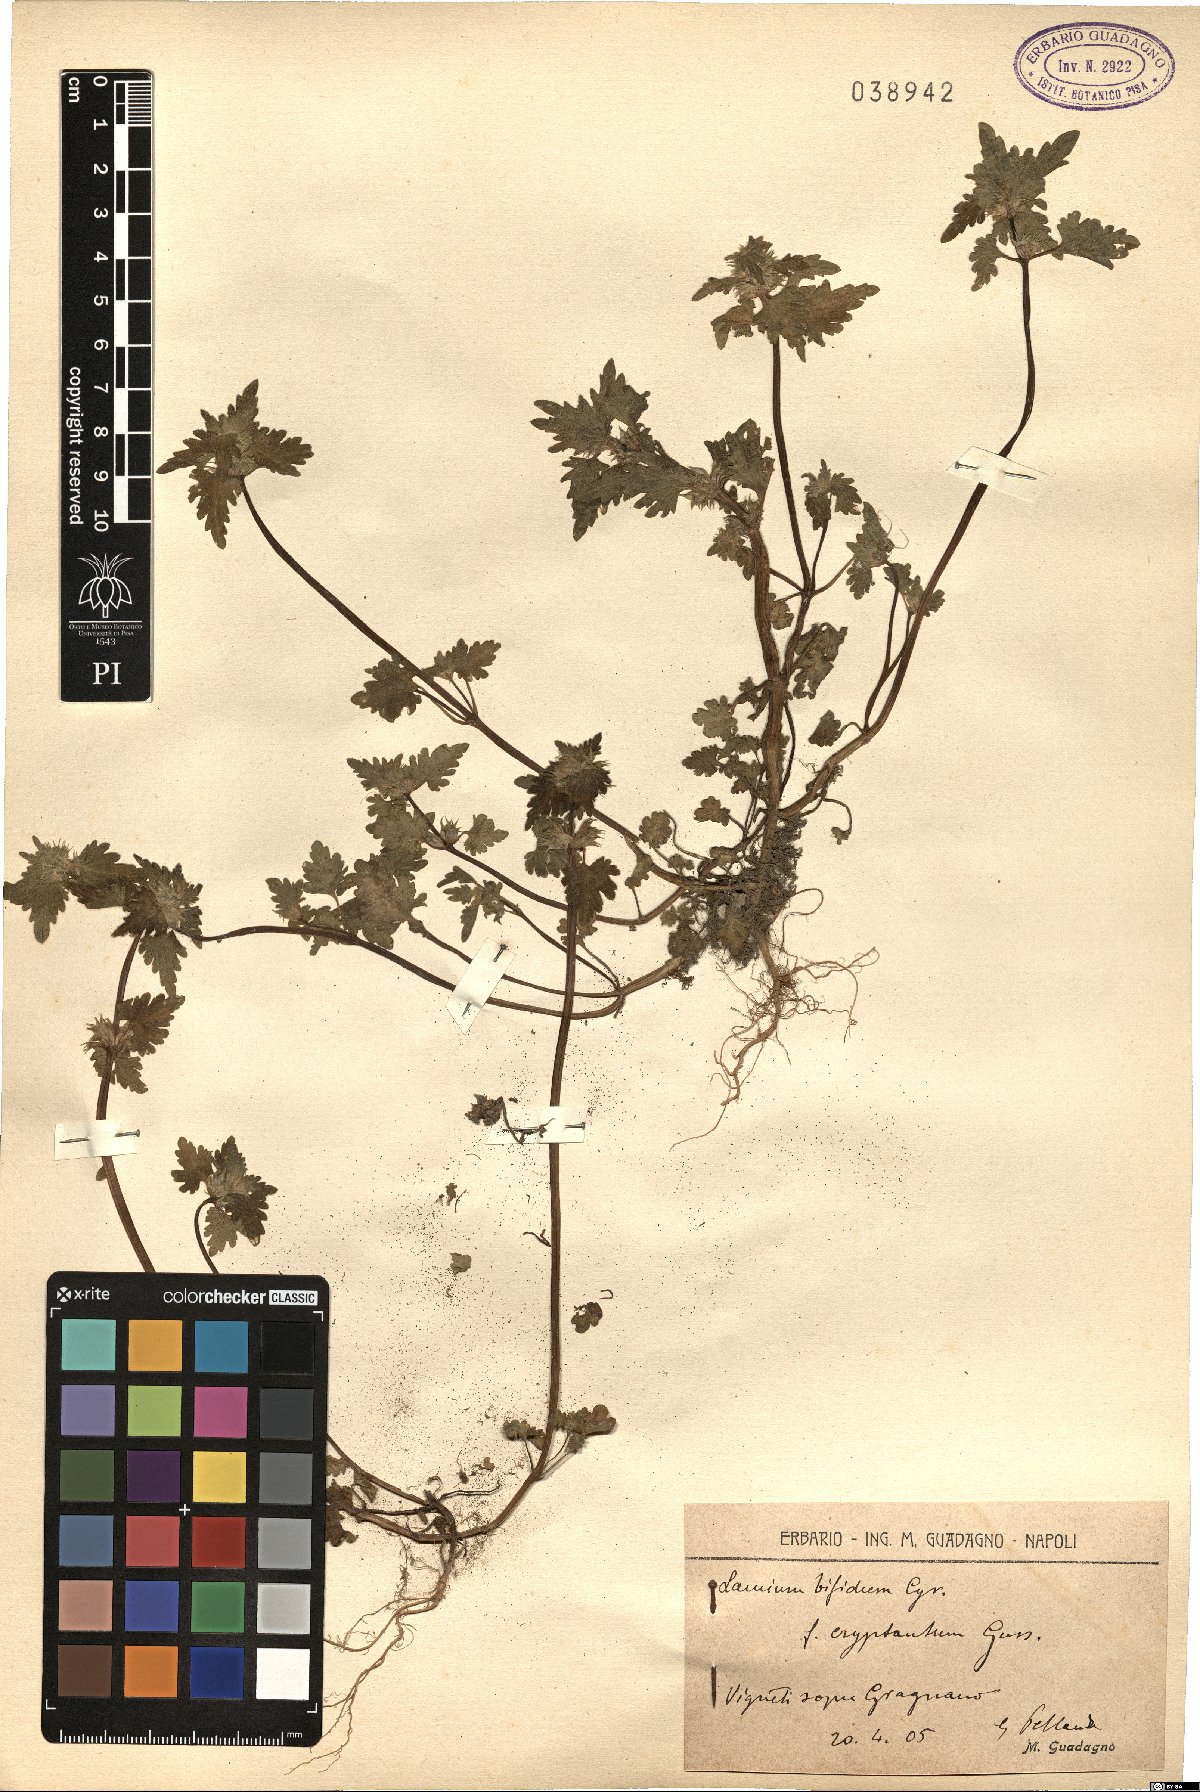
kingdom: Plantae
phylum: Tracheophyta
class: Magnoliopsida
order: Lamiales
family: Lamiaceae
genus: Lamium
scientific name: Lamium bifidum
